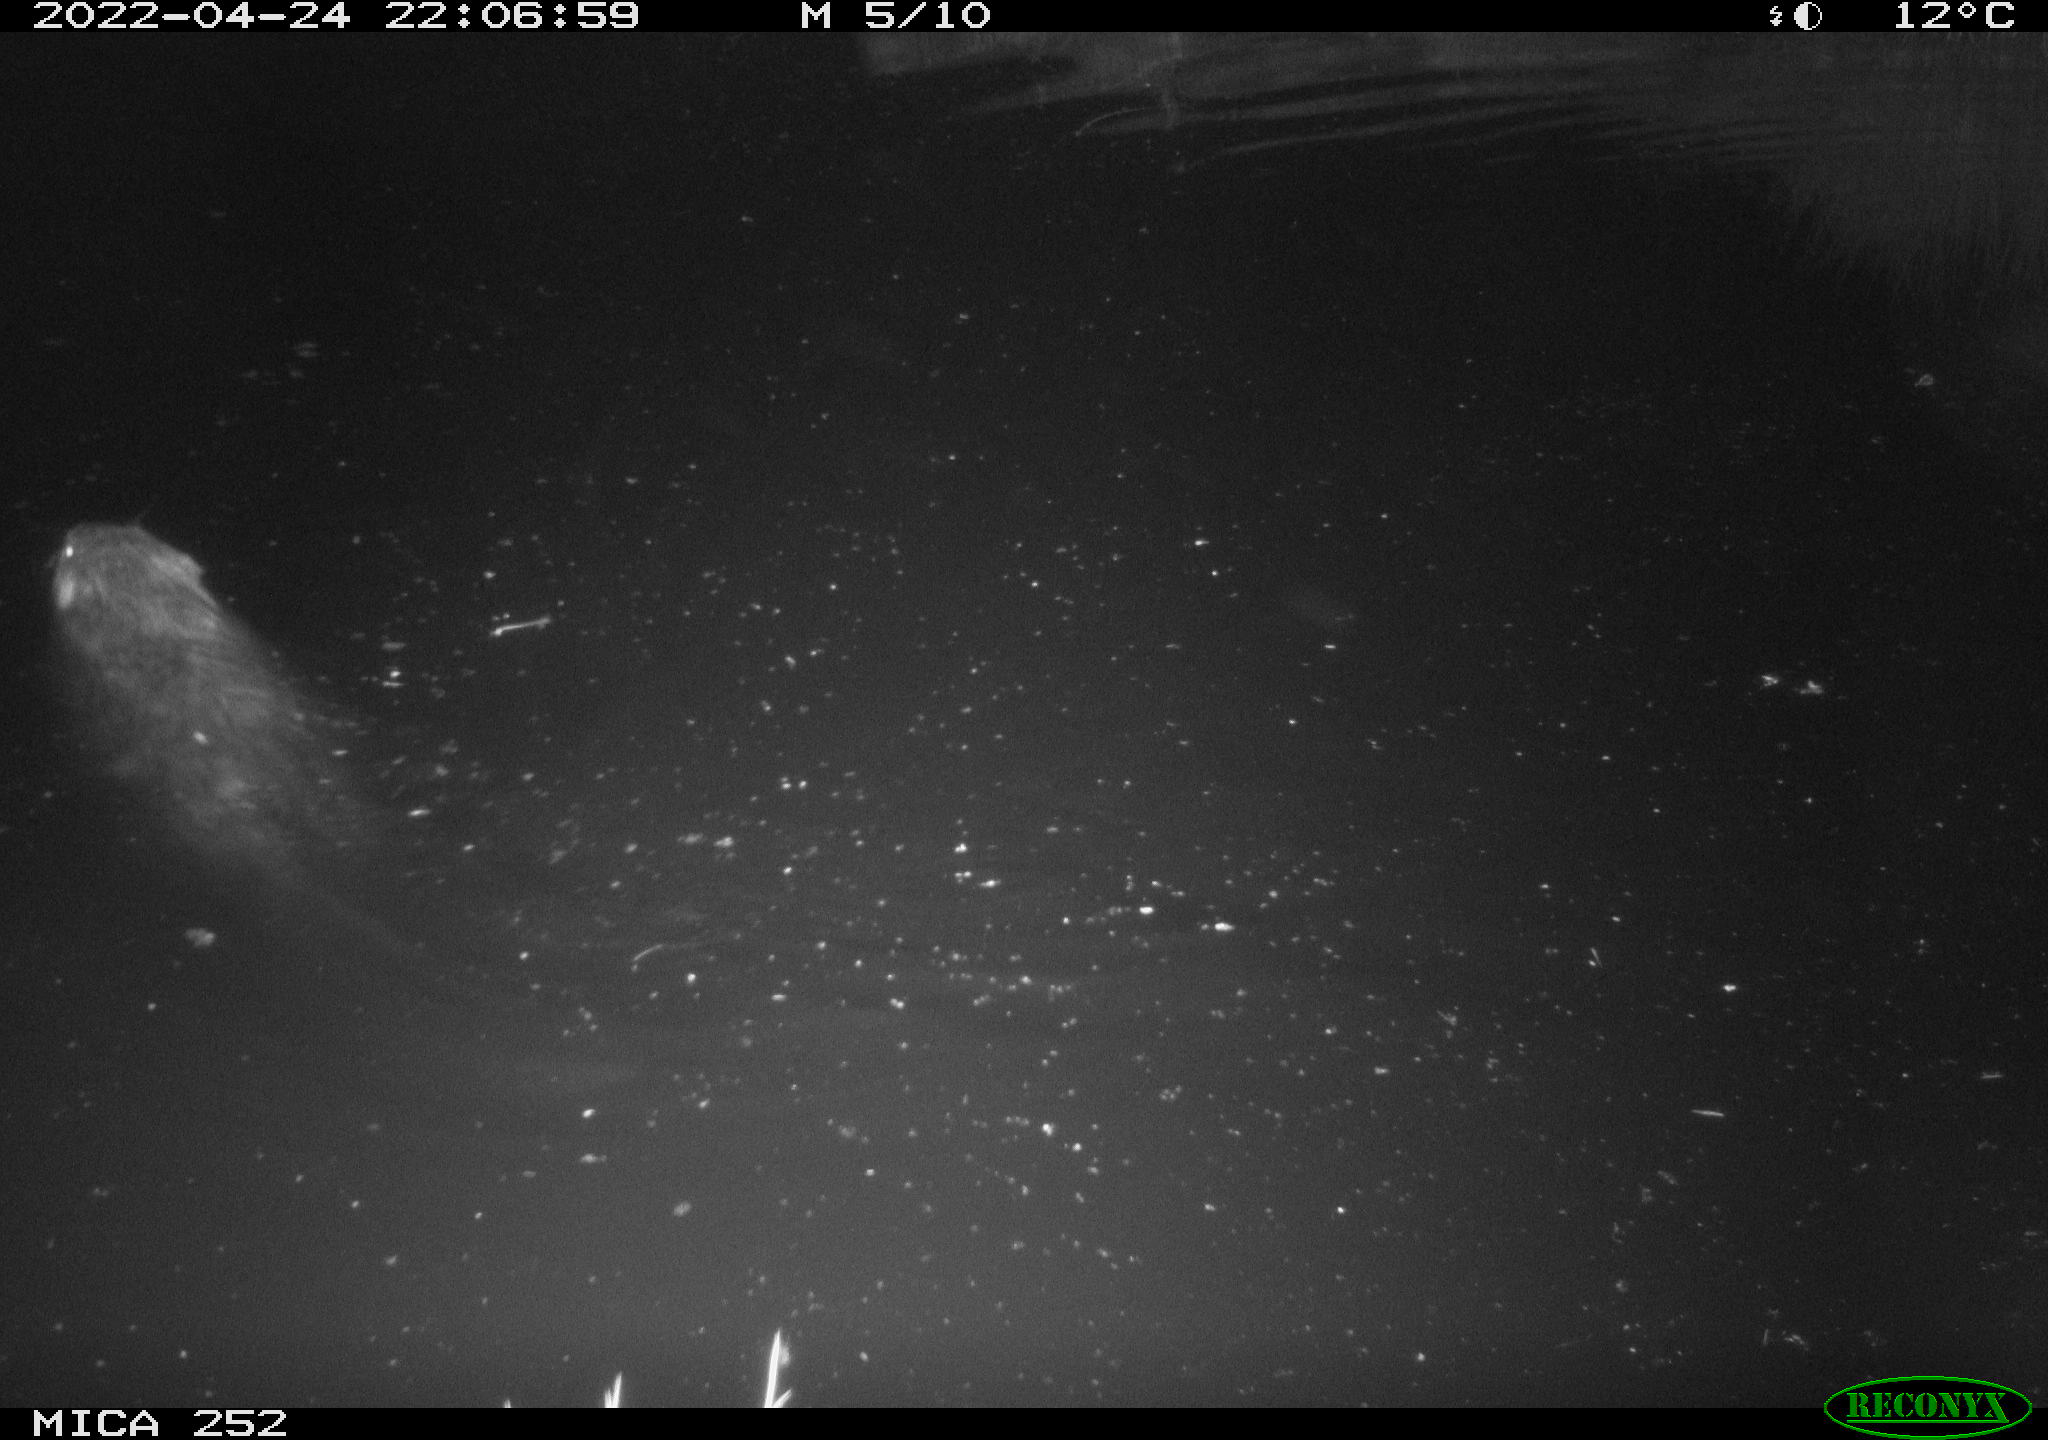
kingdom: Animalia
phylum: Chordata
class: Mammalia
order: Rodentia
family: Castoridae
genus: Castor
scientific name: Castor fiber
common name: Eurasian beaver
